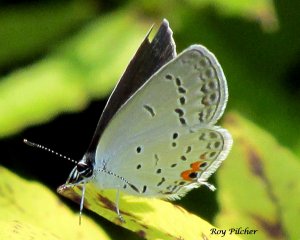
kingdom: Animalia
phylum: Arthropoda
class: Insecta
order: Lepidoptera
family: Lycaenidae
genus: Elkalyce
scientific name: Elkalyce comyntas
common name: Eastern Tailed-Blue
